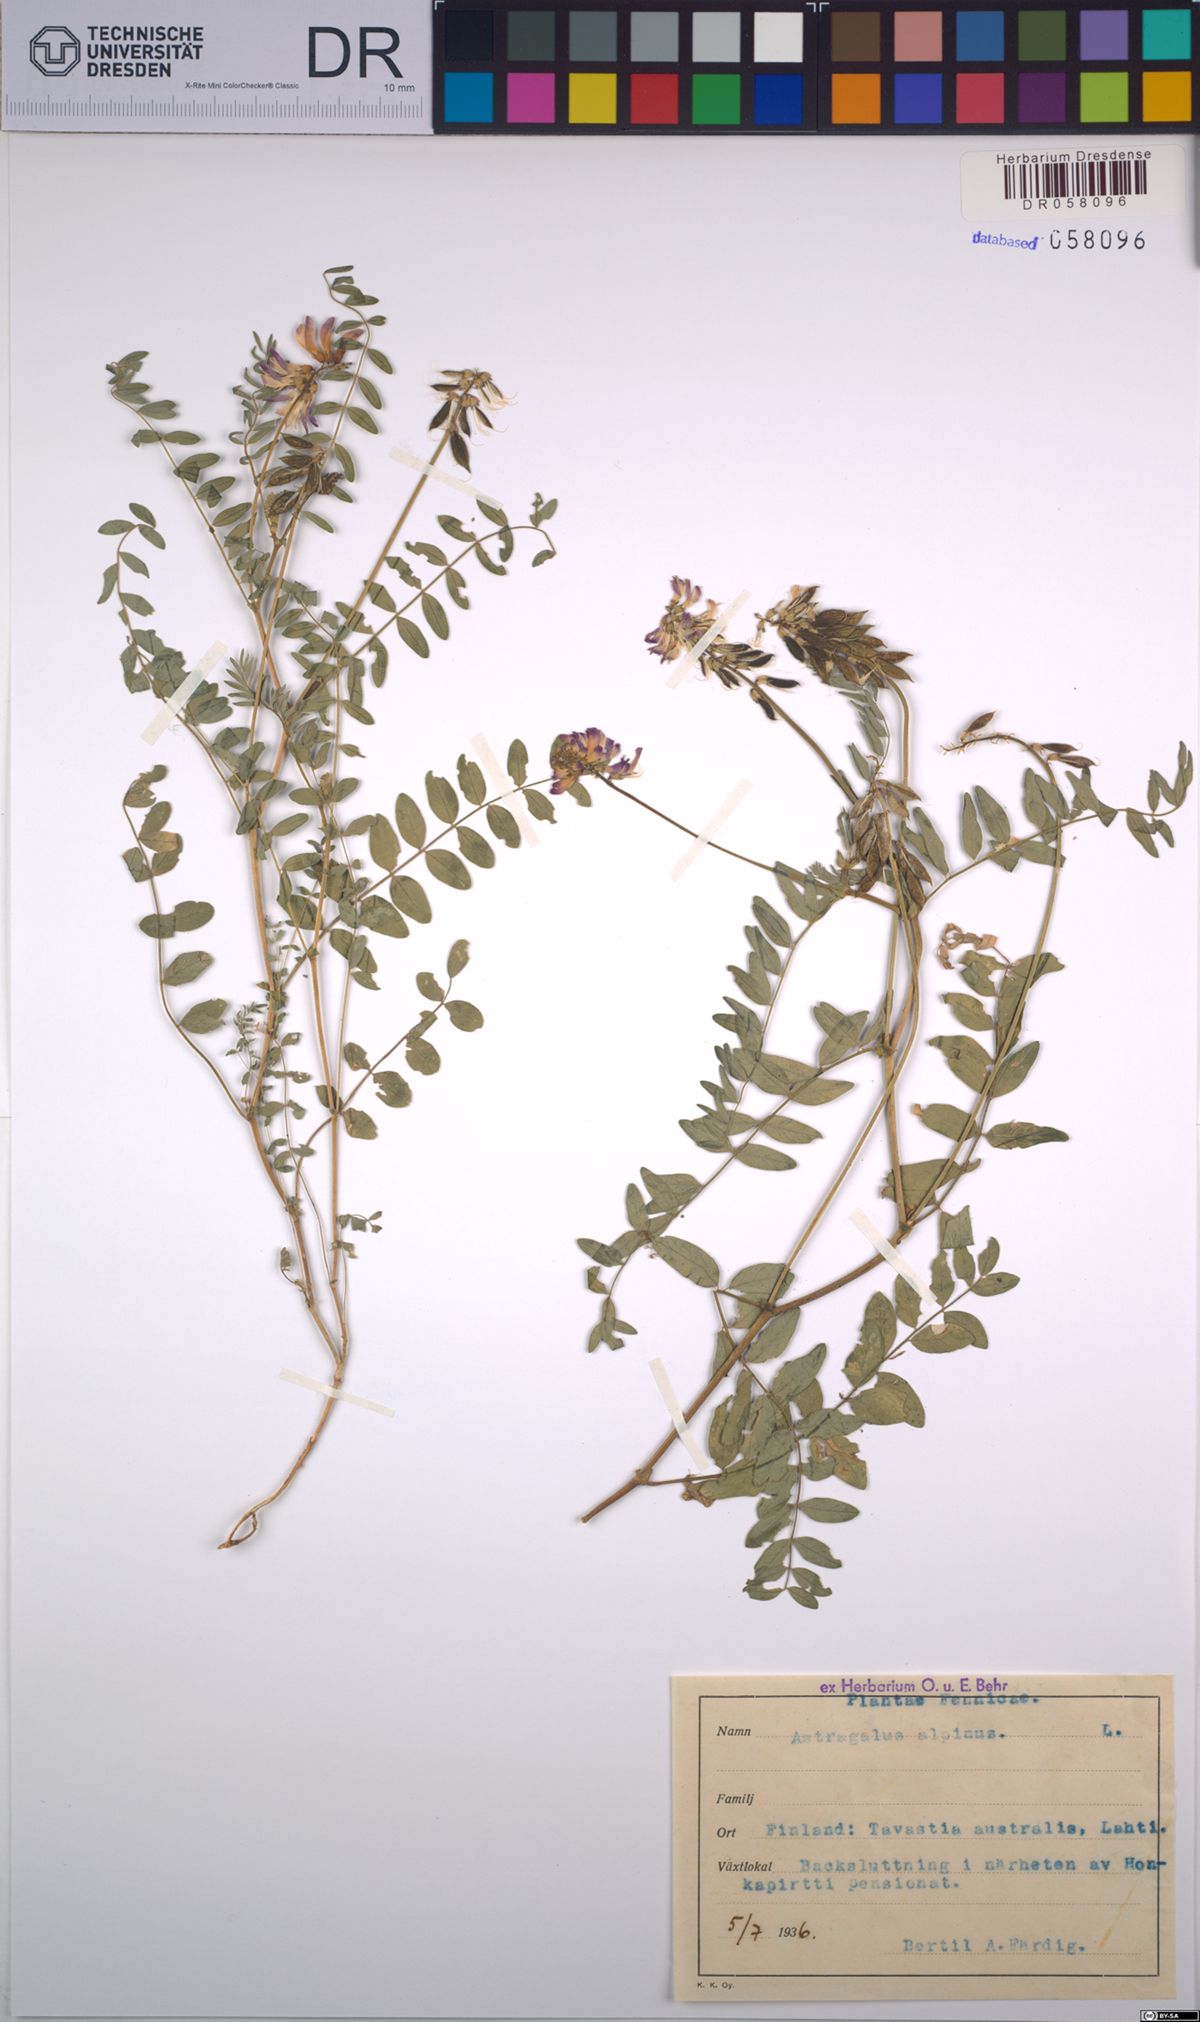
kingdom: Plantae
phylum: Tracheophyta
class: Magnoliopsida
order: Fabales
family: Fabaceae
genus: Astragalus
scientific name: Astragalus alpinus
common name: Alpine milk-vetch
